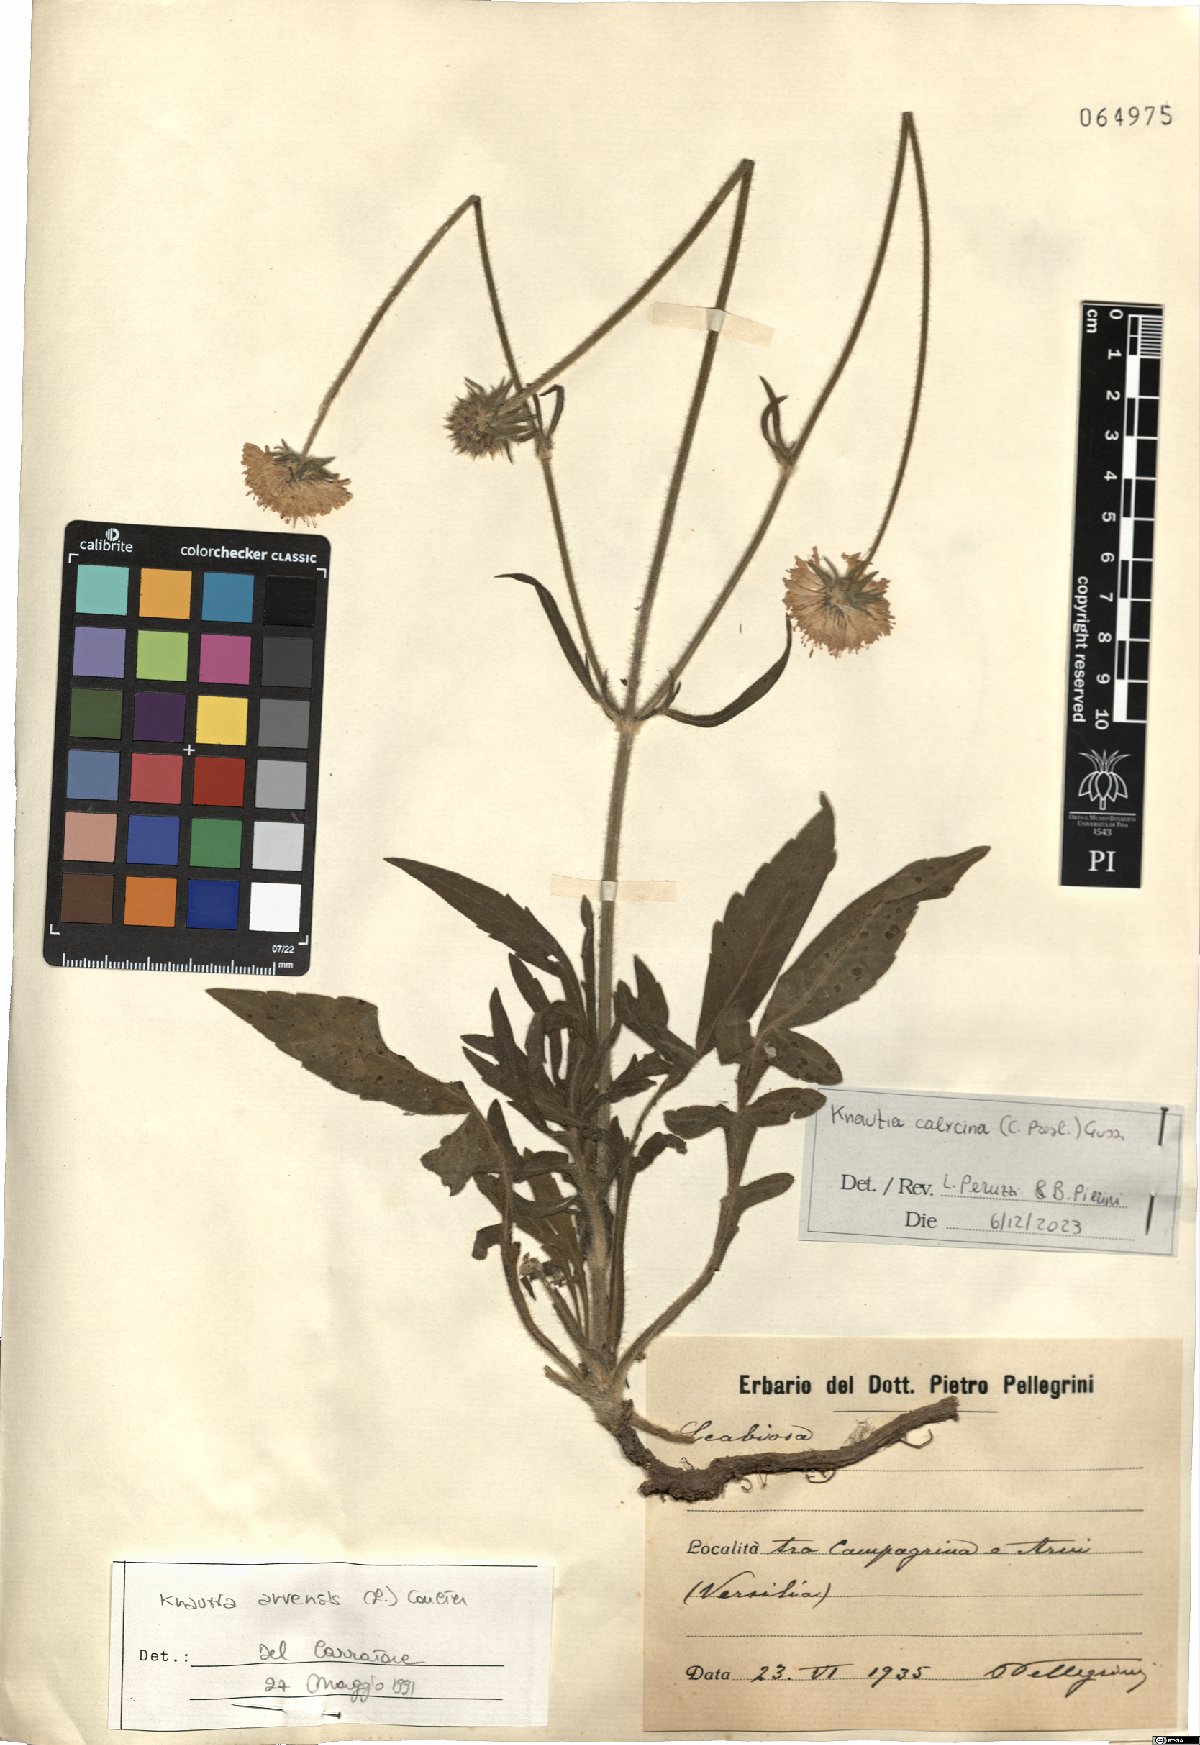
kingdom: Plantae
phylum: Tracheophyta
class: Magnoliopsida
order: Dipsacales
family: Caprifoliaceae
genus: Knautia
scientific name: Knautia calycina
